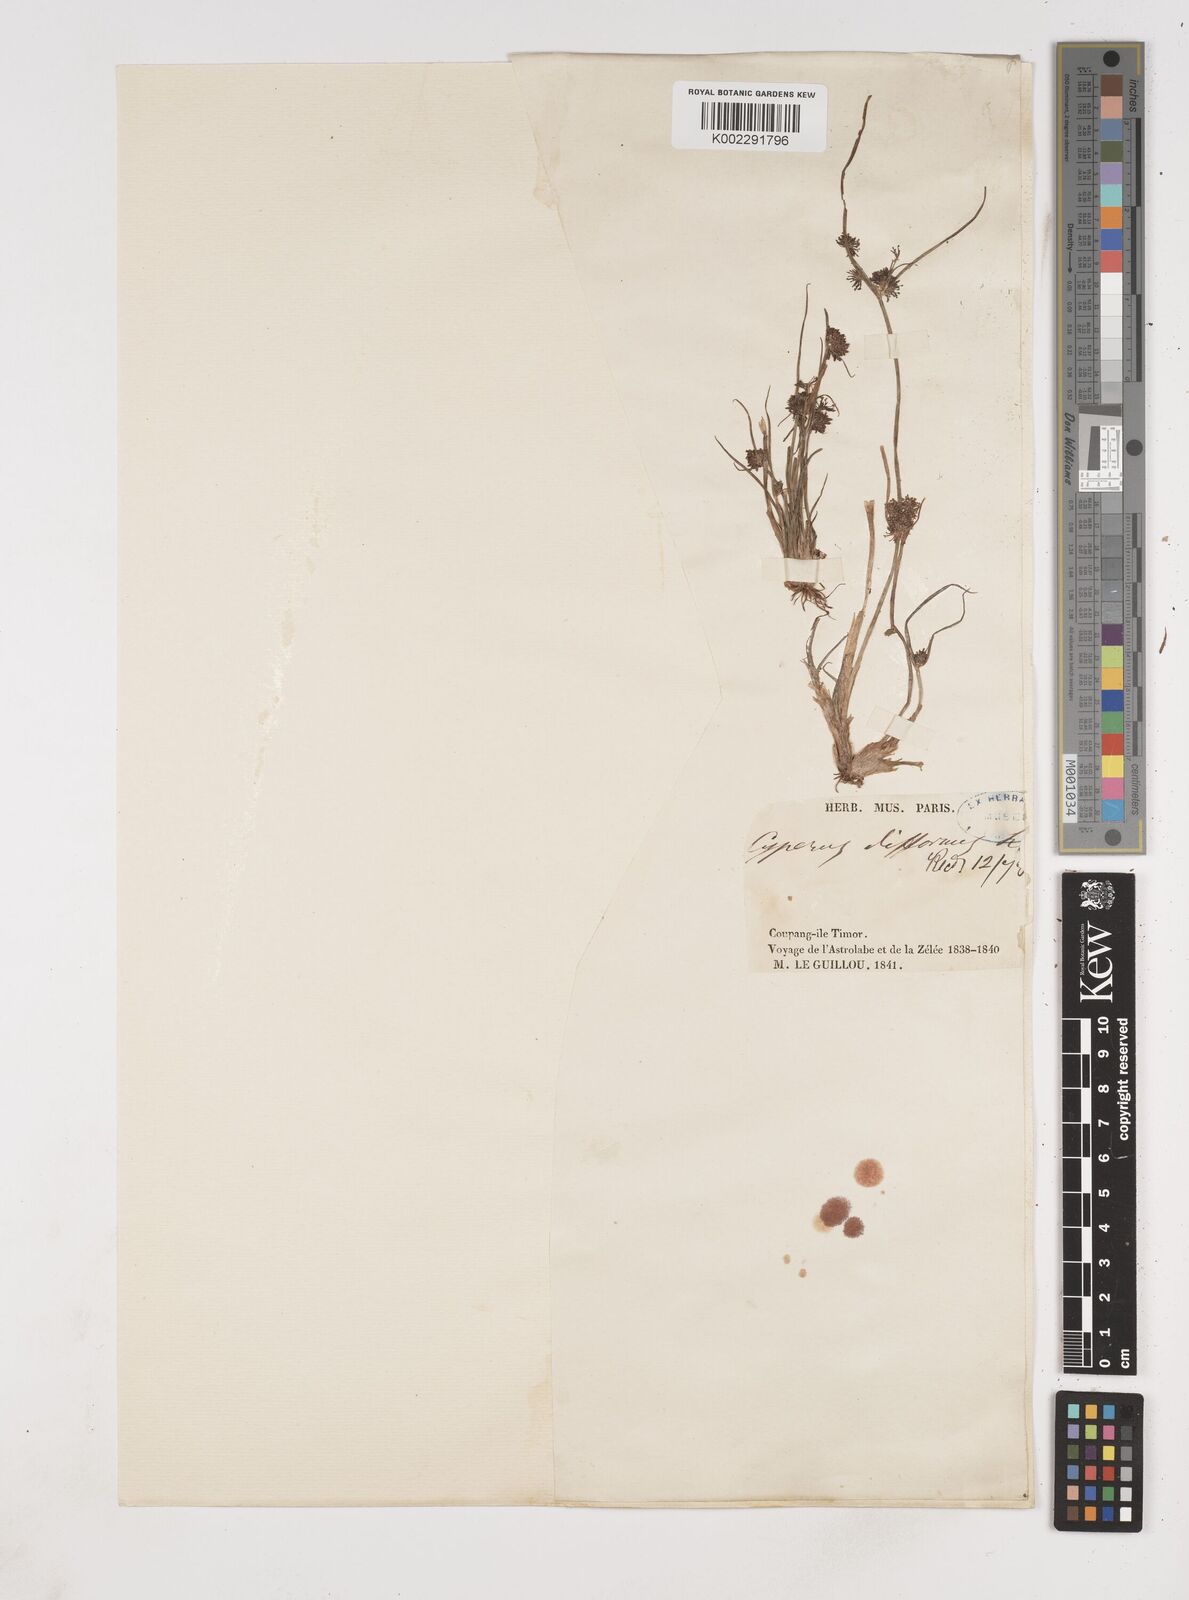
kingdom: Plantae
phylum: Tracheophyta
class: Liliopsida
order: Poales
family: Cyperaceae
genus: Cyperus
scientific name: Cyperus difformis
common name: Variable flatsedge
